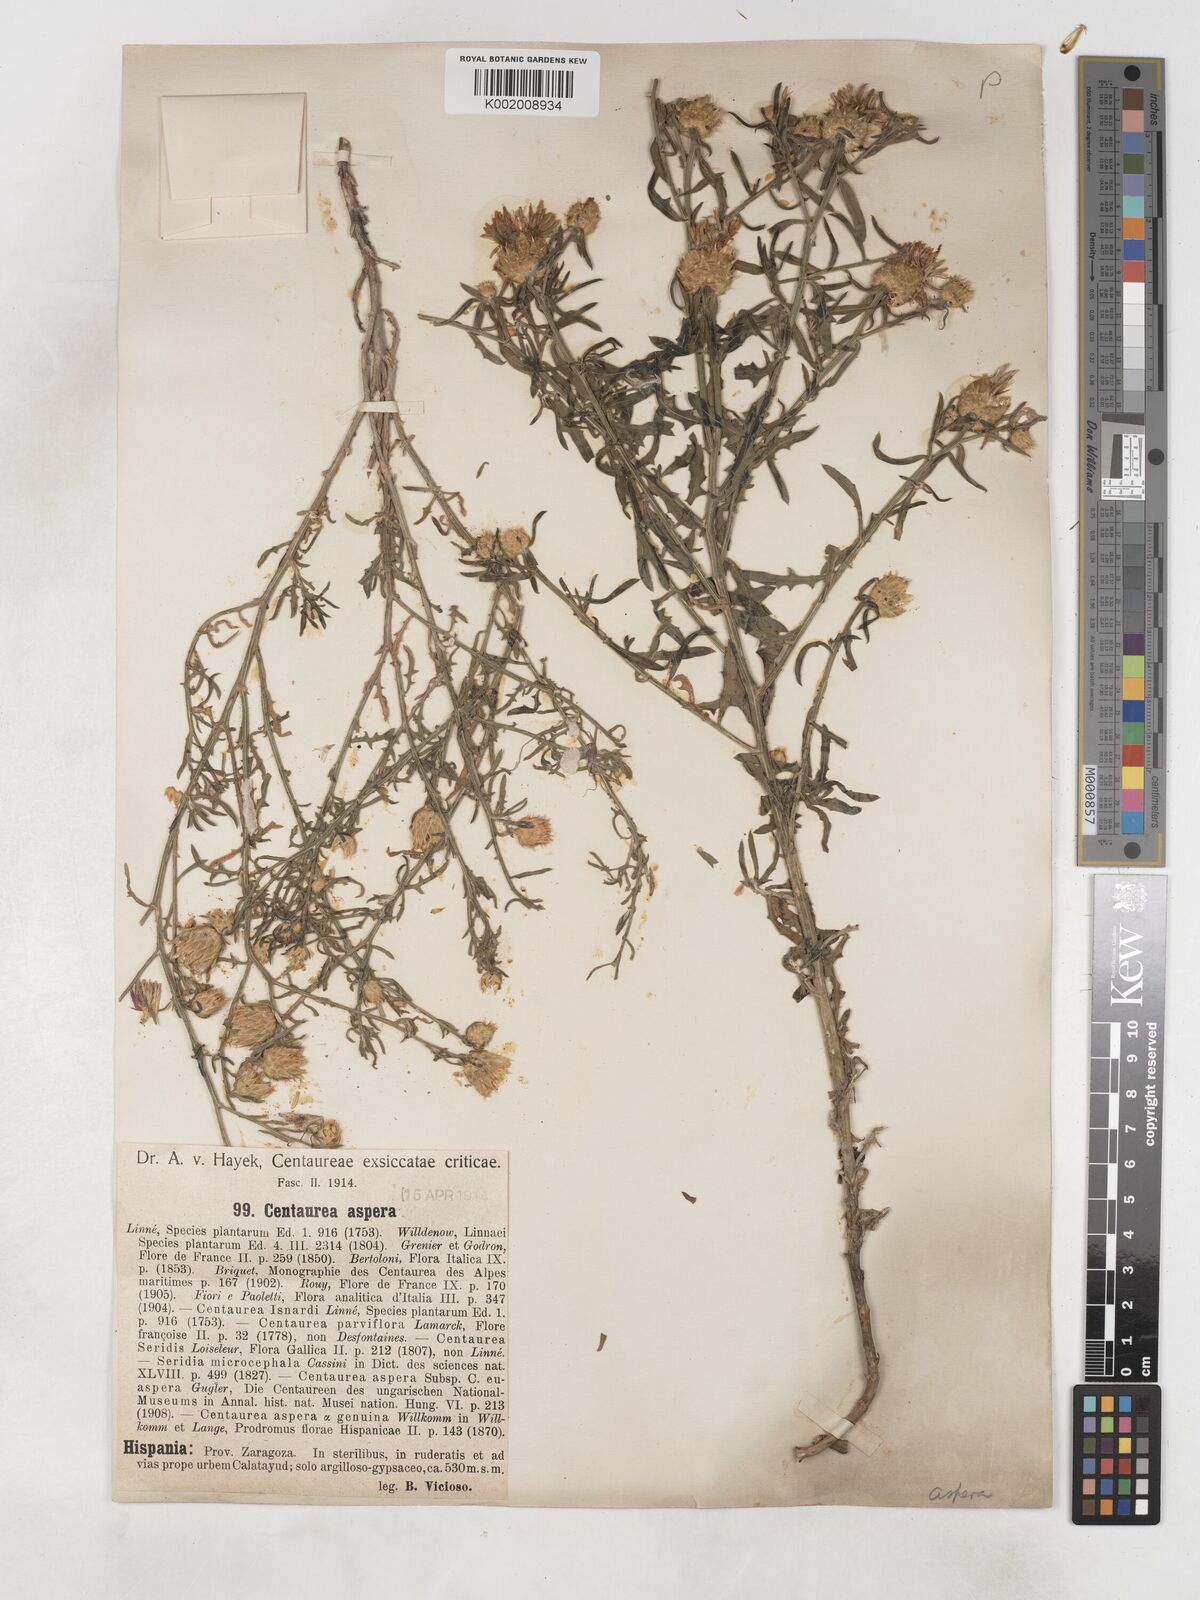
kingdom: Plantae
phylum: Tracheophyta
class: Magnoliopsida
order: Asterales
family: Asteraceae
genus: Centaurea
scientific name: Centaurea aspera
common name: Rough star-thistle
